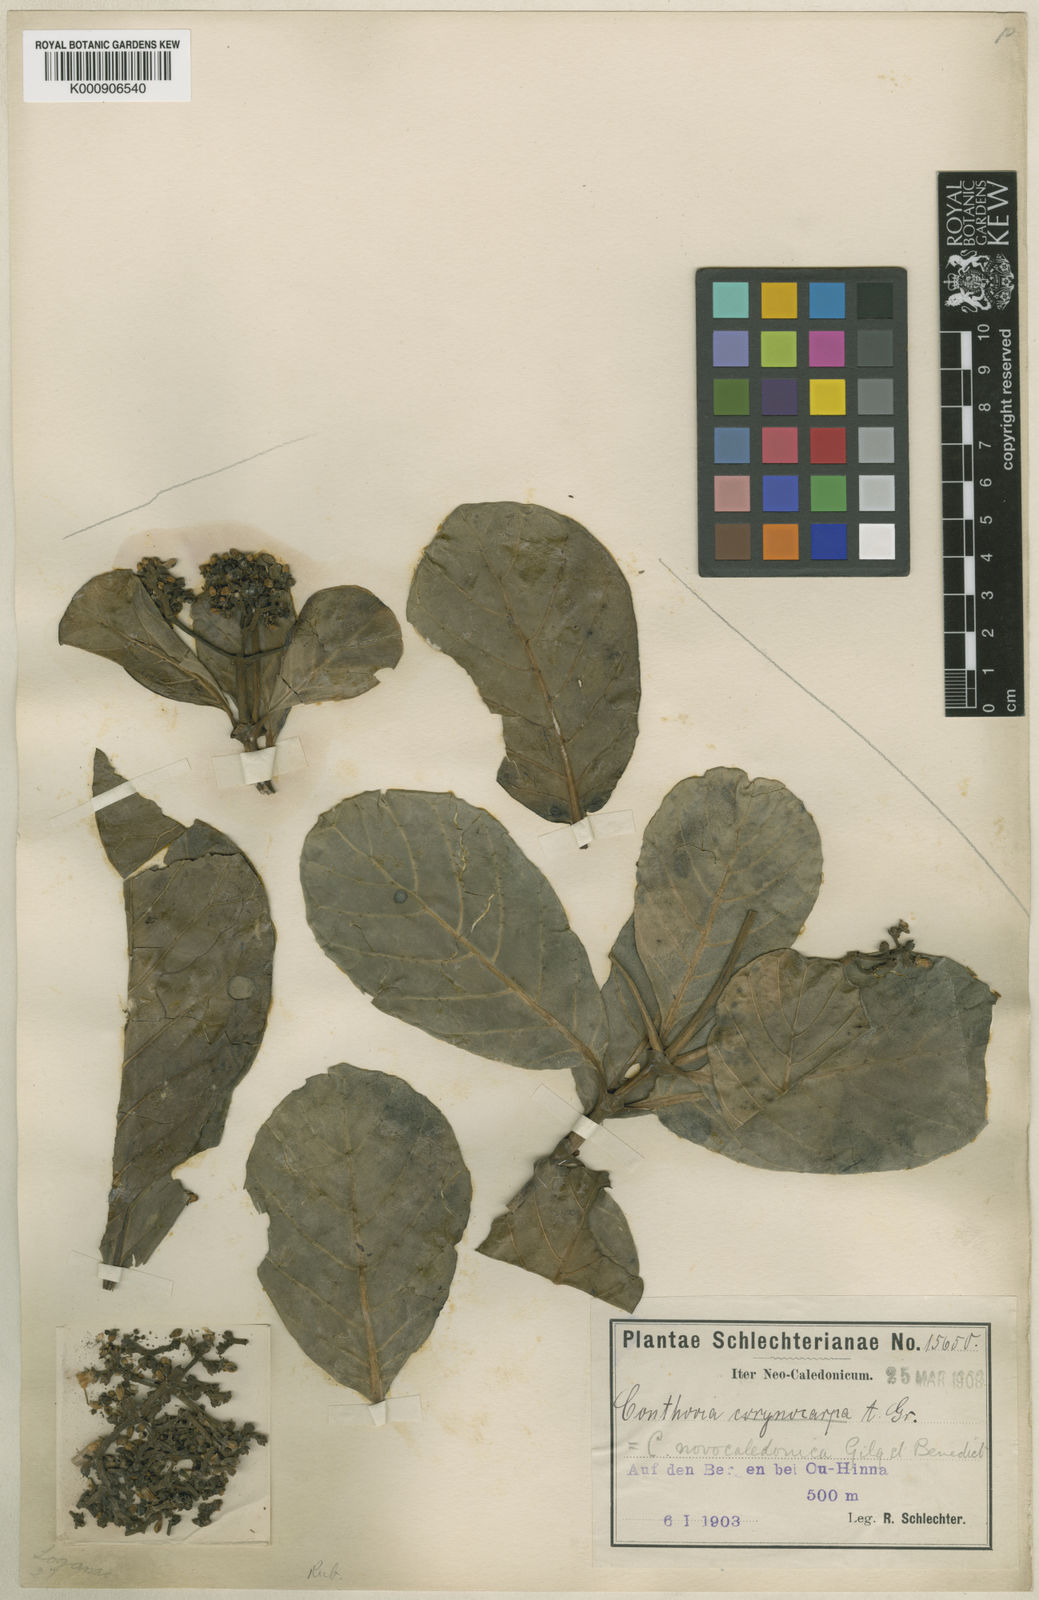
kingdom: Plantae
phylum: Tracheophyta
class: Magnoliopsida
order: Gentianales
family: Loganiaceae
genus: Neuburgia
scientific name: Neuburgia corynocarpa
